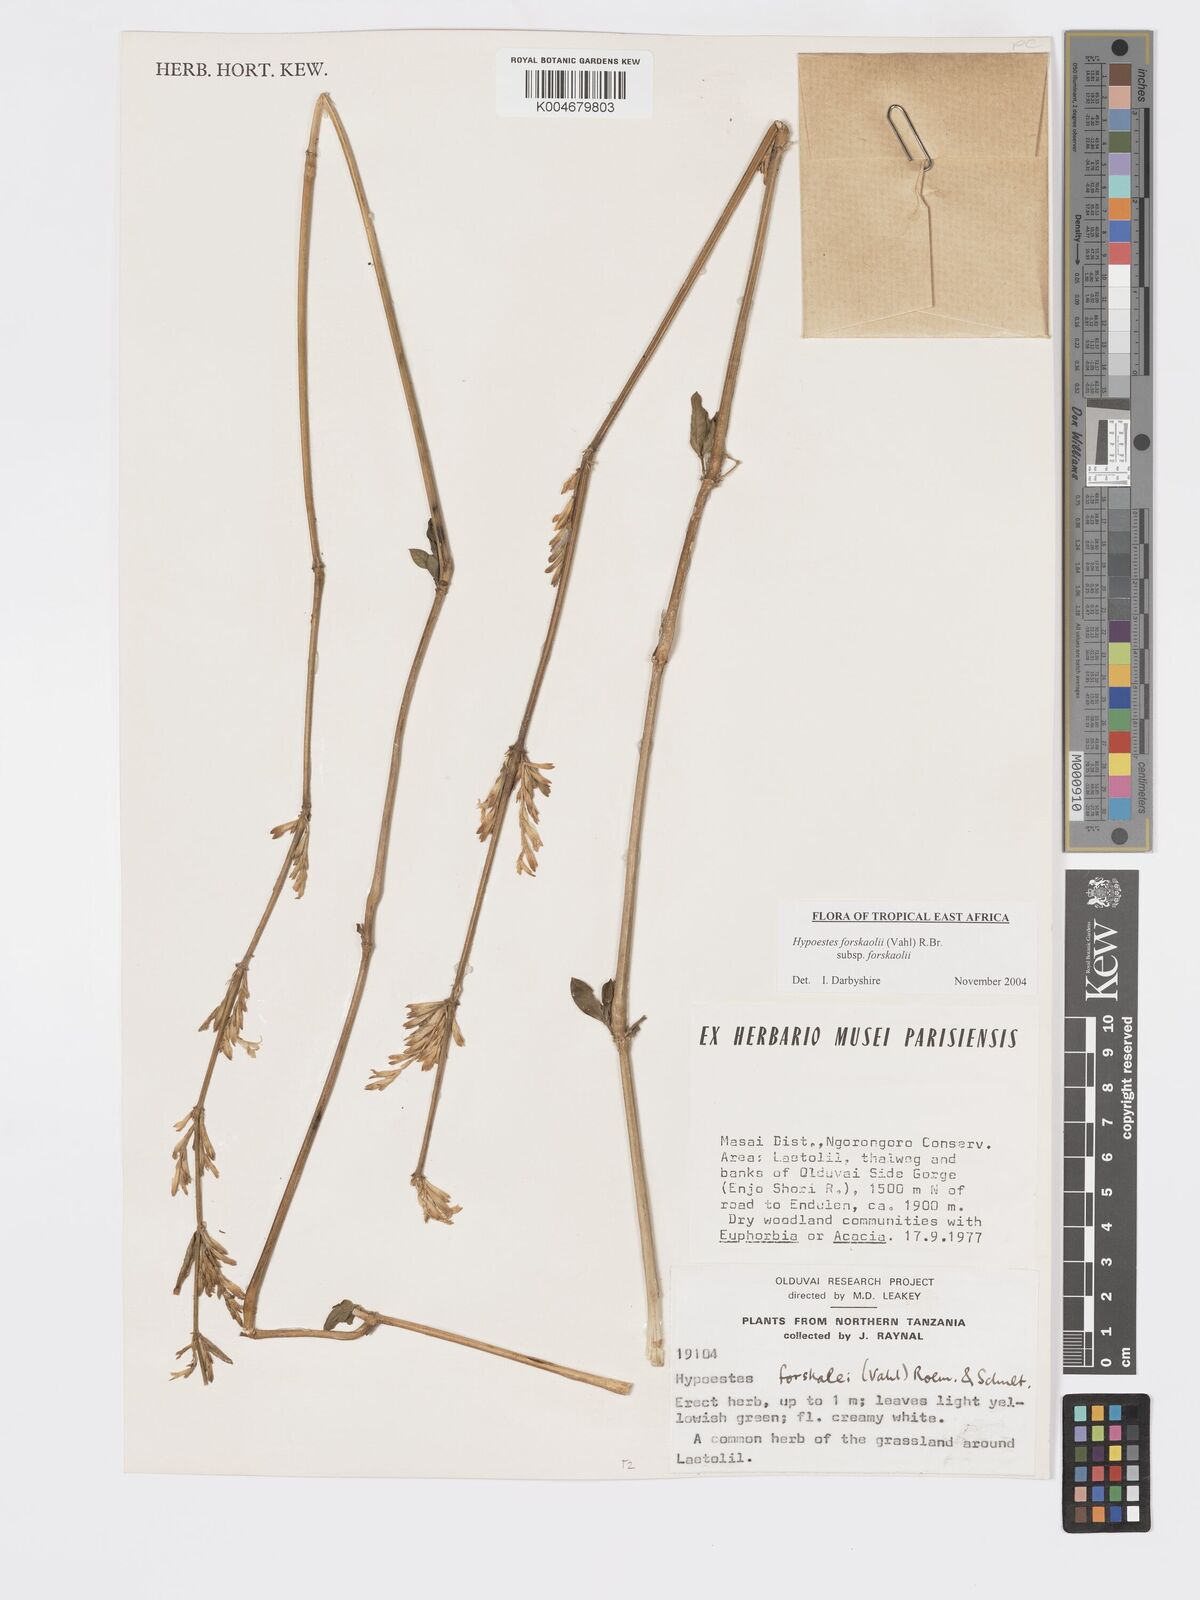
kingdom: Plantae
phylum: Tracheophyta
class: Magnoliopsida
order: Lamiales
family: Acanthaceae
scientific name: Acanthaceae
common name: Acanthaceae
